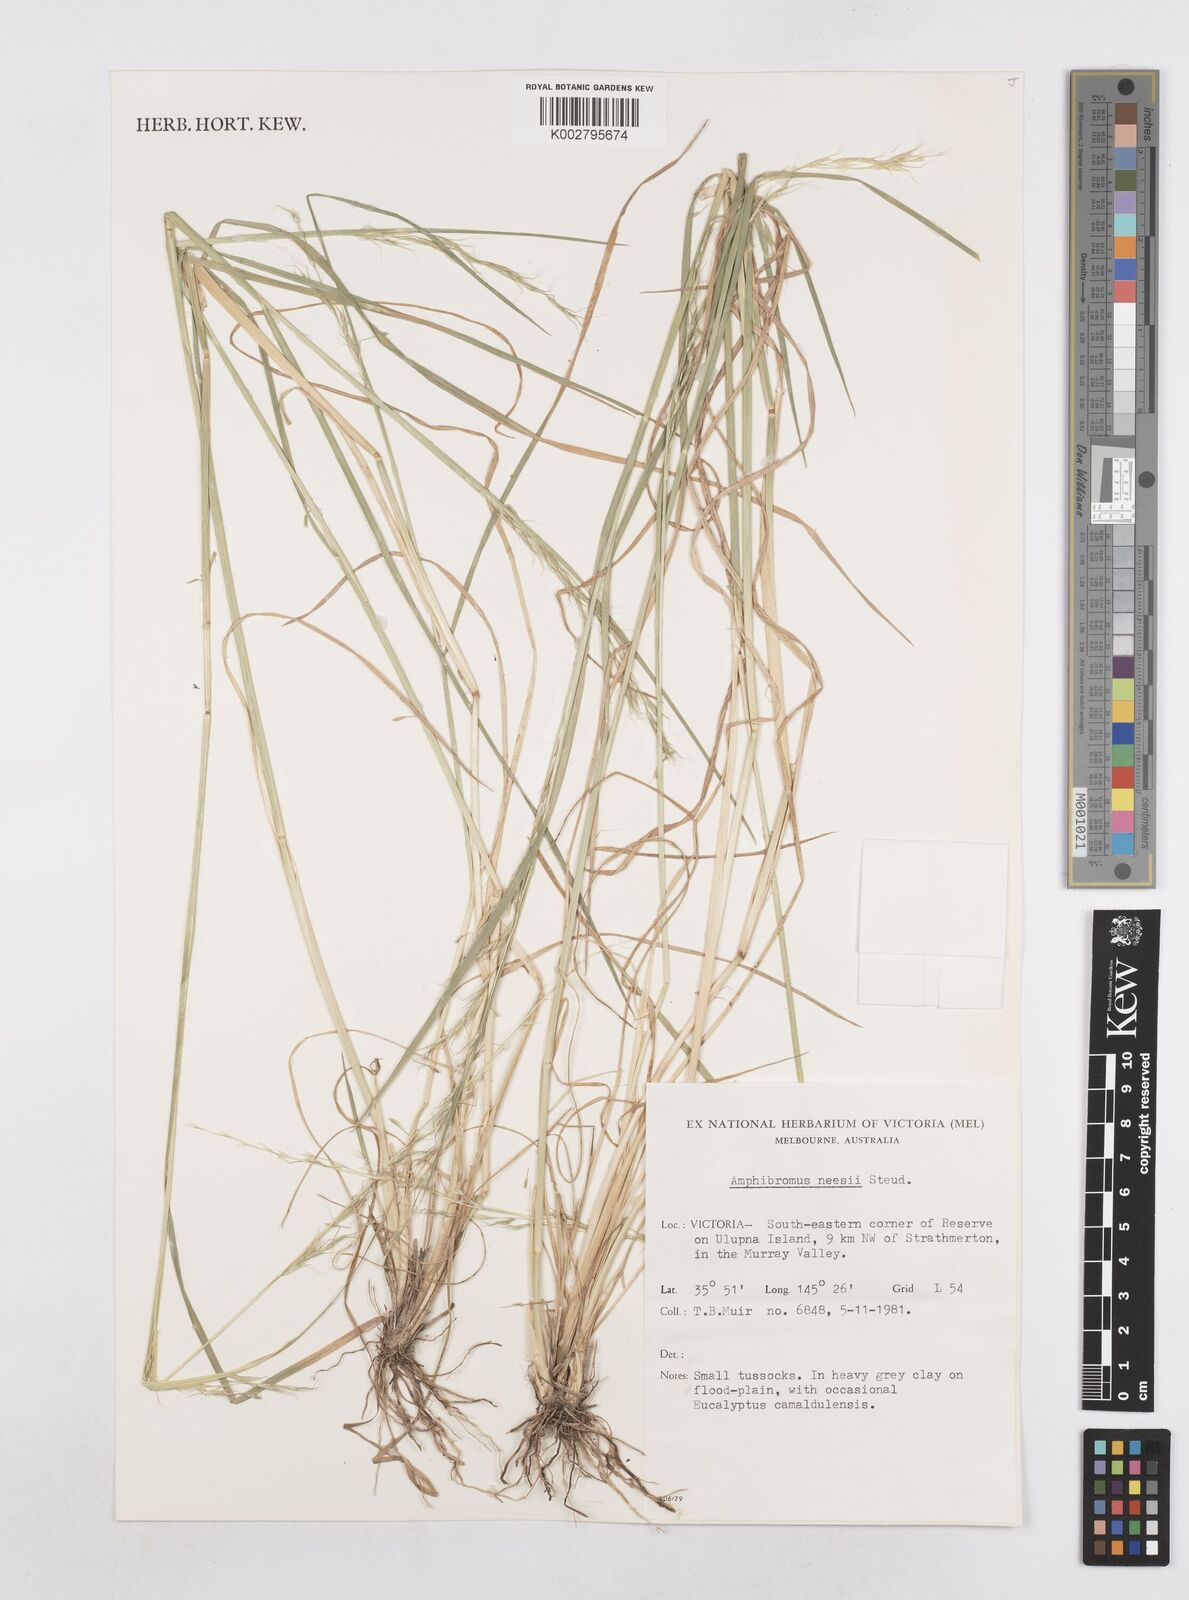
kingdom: Plantae
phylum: Tracheophyta
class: Liliopsida
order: Poales
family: Poaceae
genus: Amphibromus
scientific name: Amphibromus neesii
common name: Australian wallaby grass
